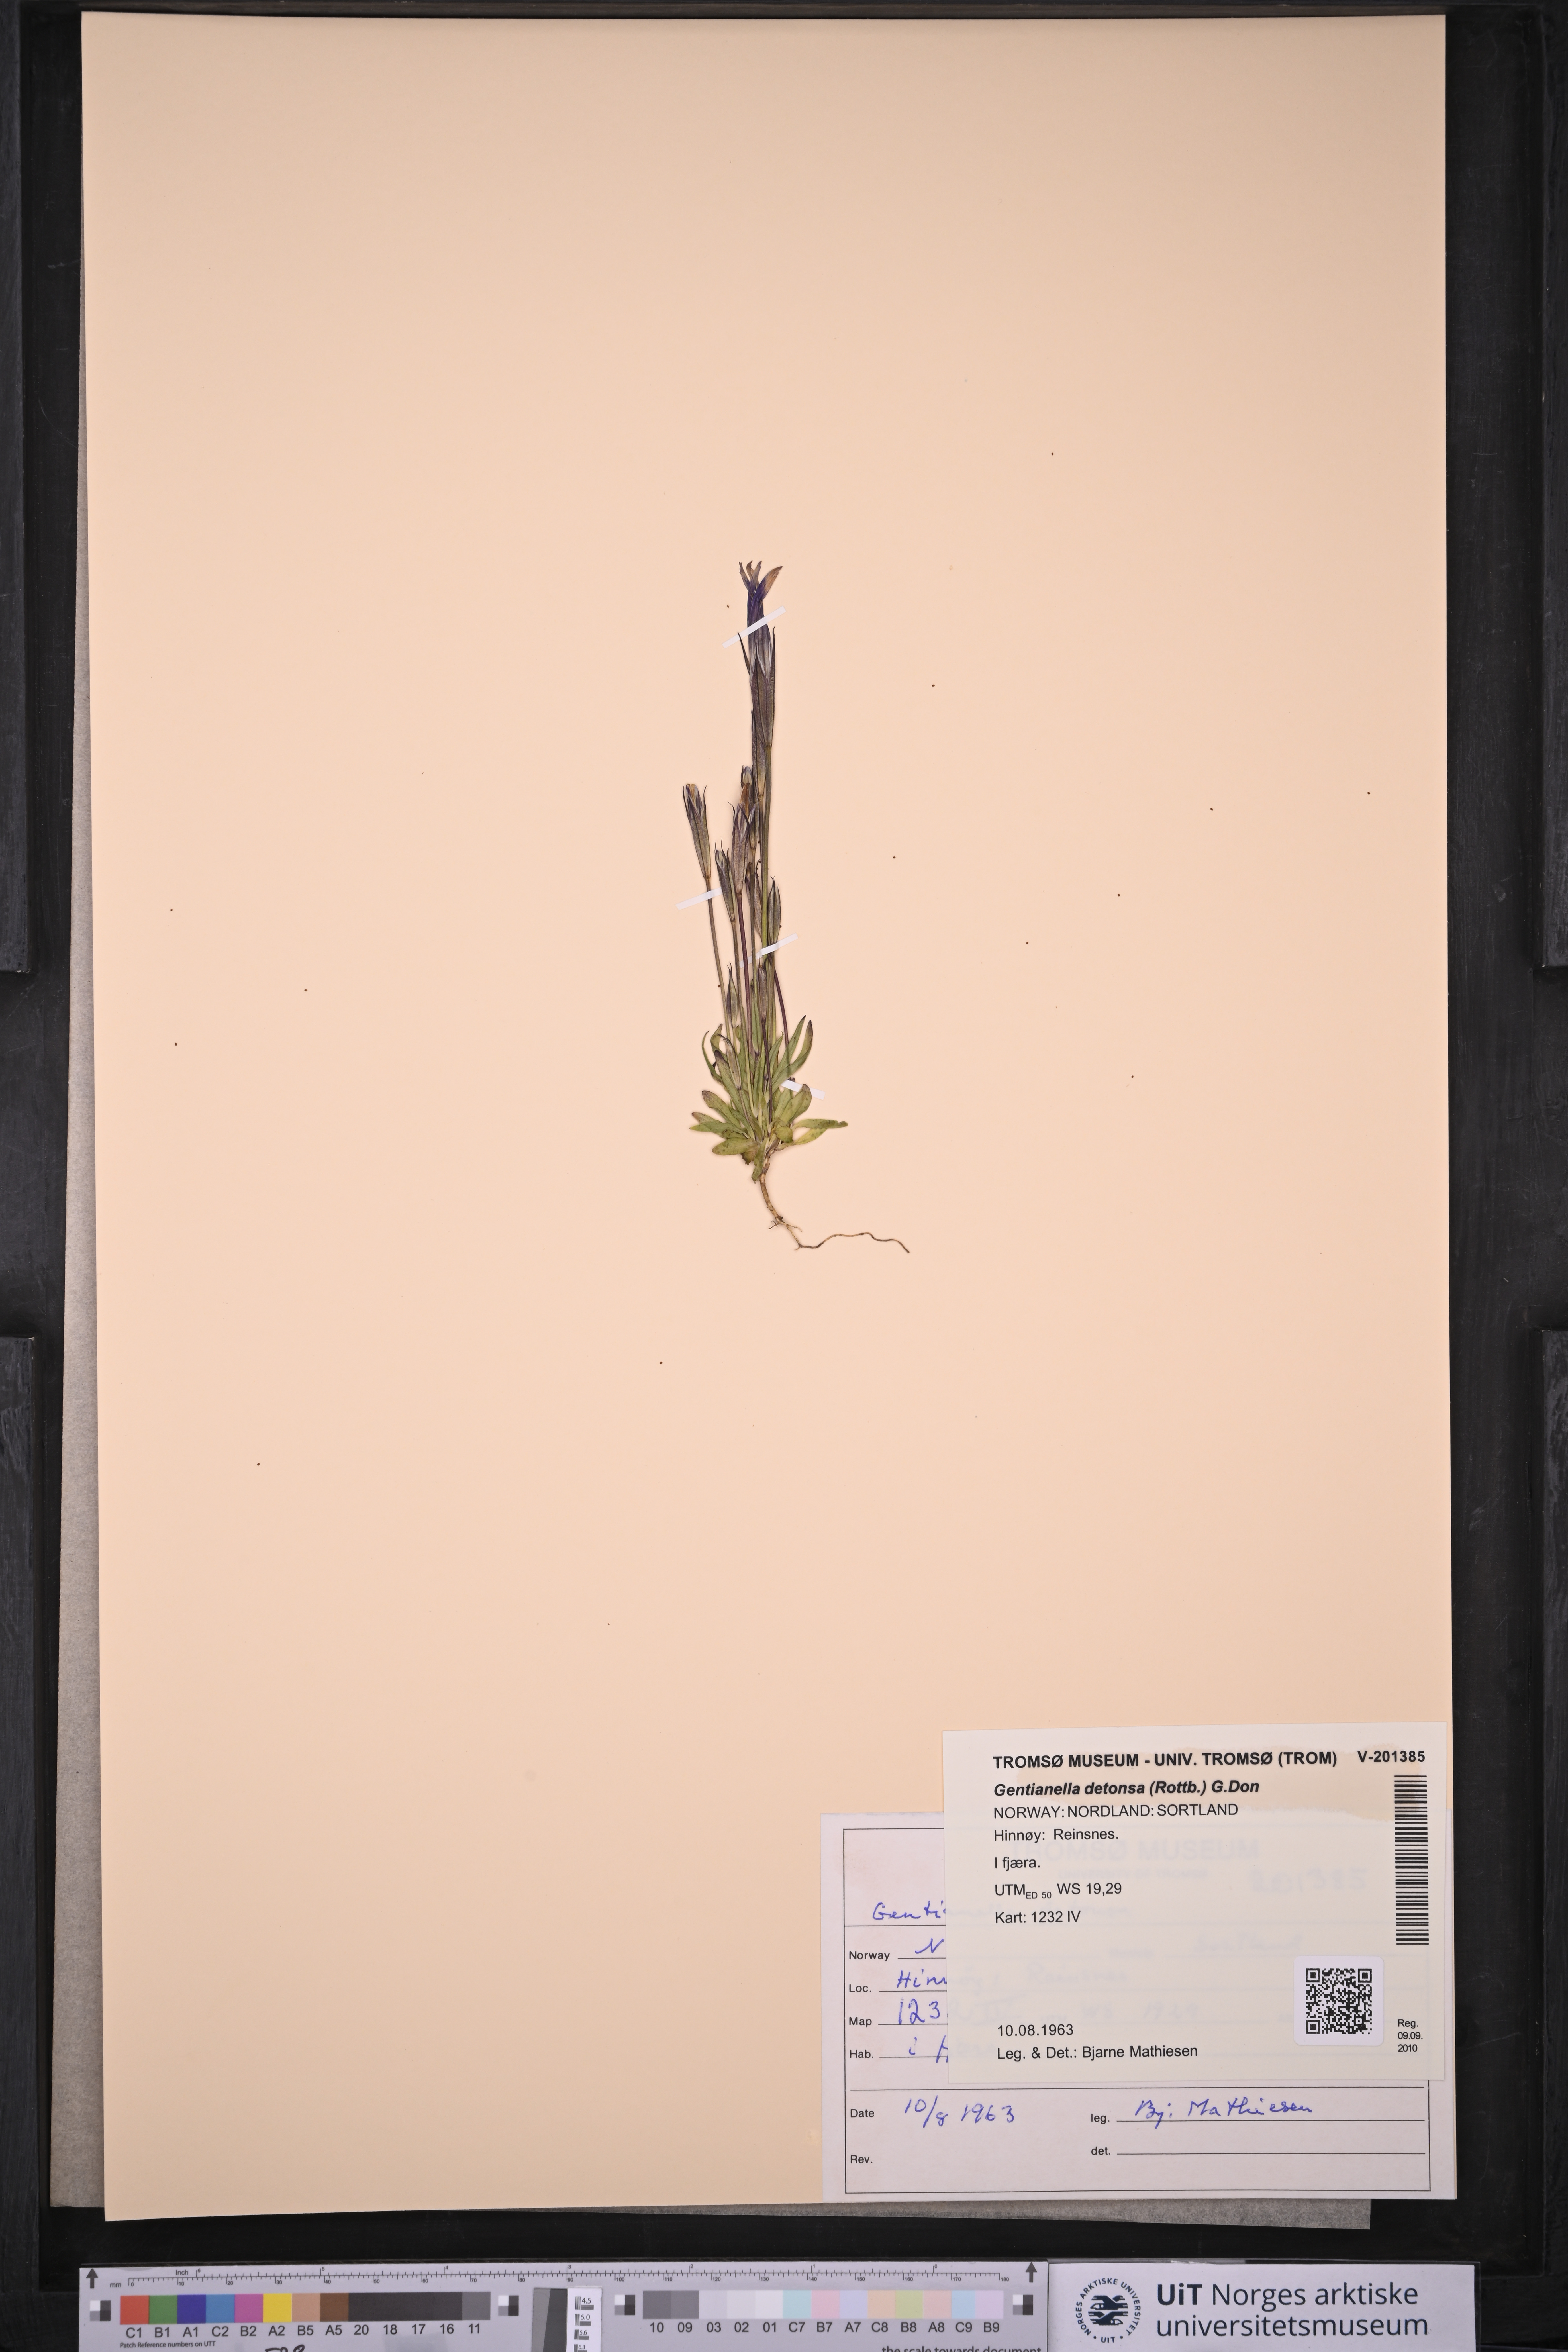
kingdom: Plantae
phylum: Tracheophyta
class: Magnoliopsida
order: Gentianales
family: Gentianaceae
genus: Gentianopsis
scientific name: Gentianopsis detonsa
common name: Fringed-gentian
